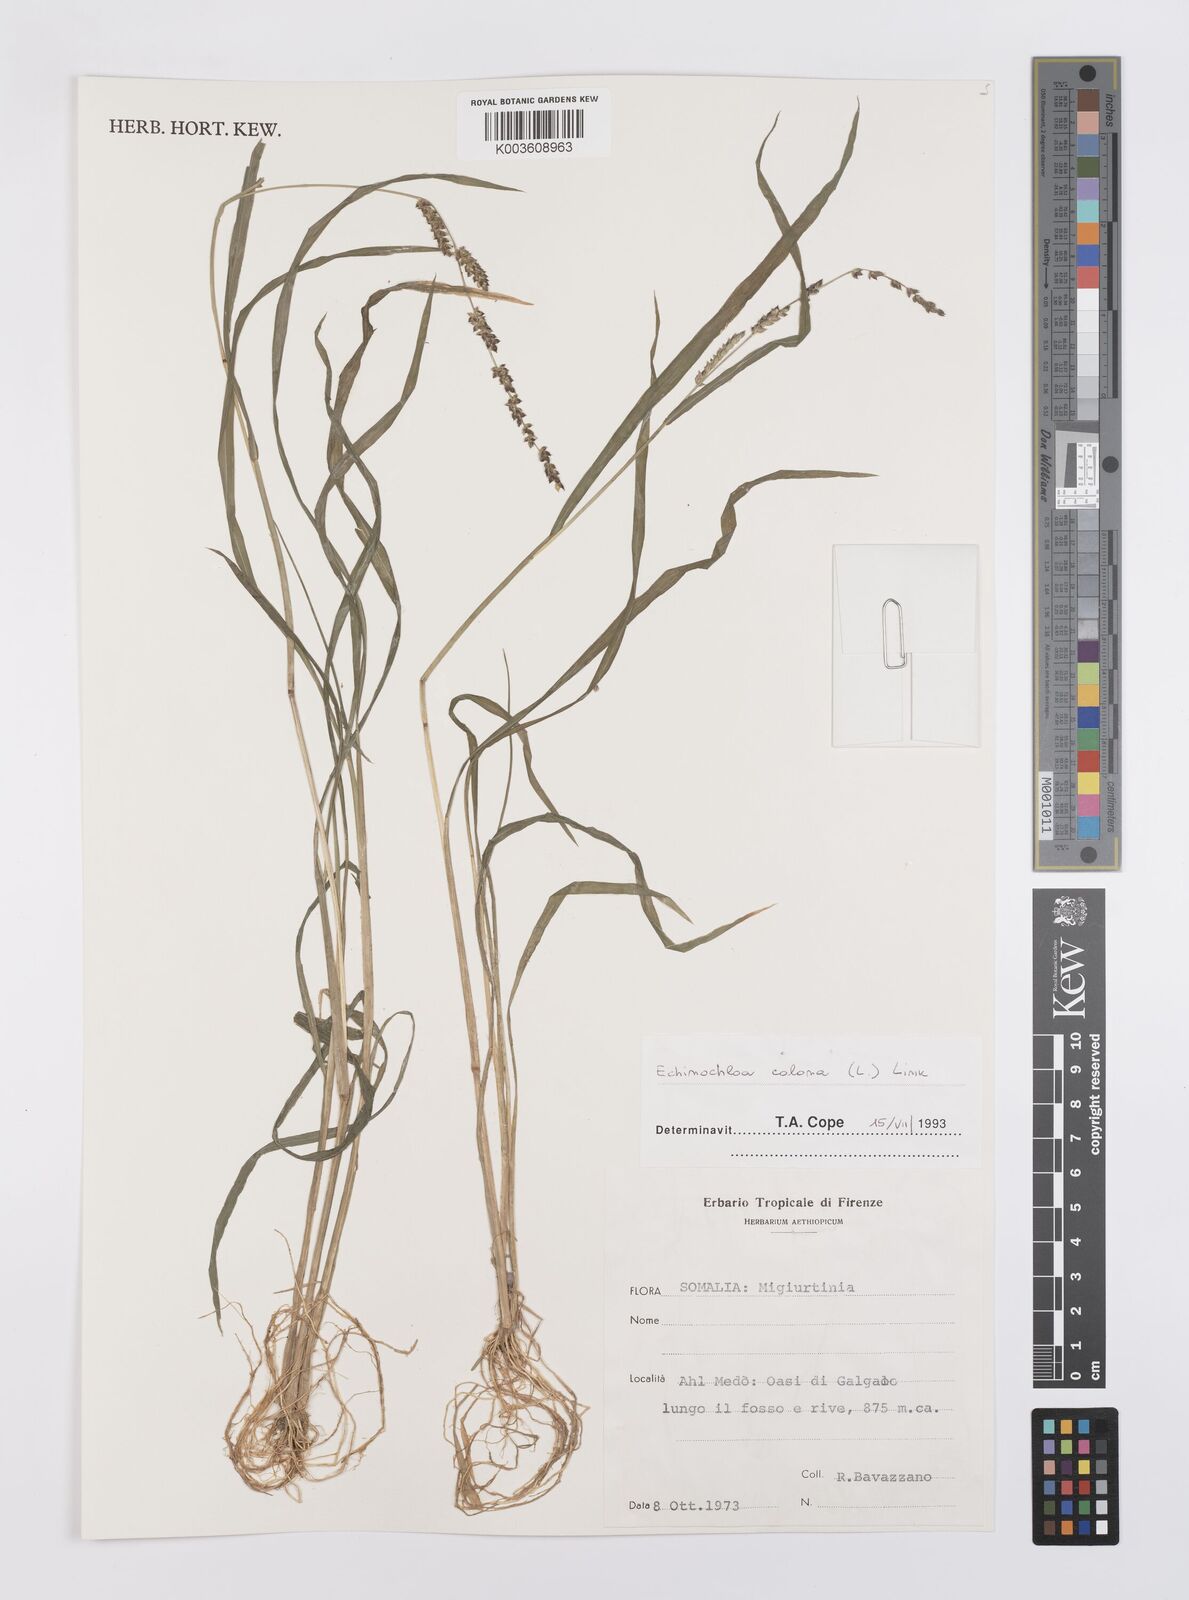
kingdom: Plantae
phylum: Tracheophyta
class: Liliopsida
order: Poales
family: Poaceae
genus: Echinochloa
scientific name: Echinochloa colonum
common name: Jungle rice
